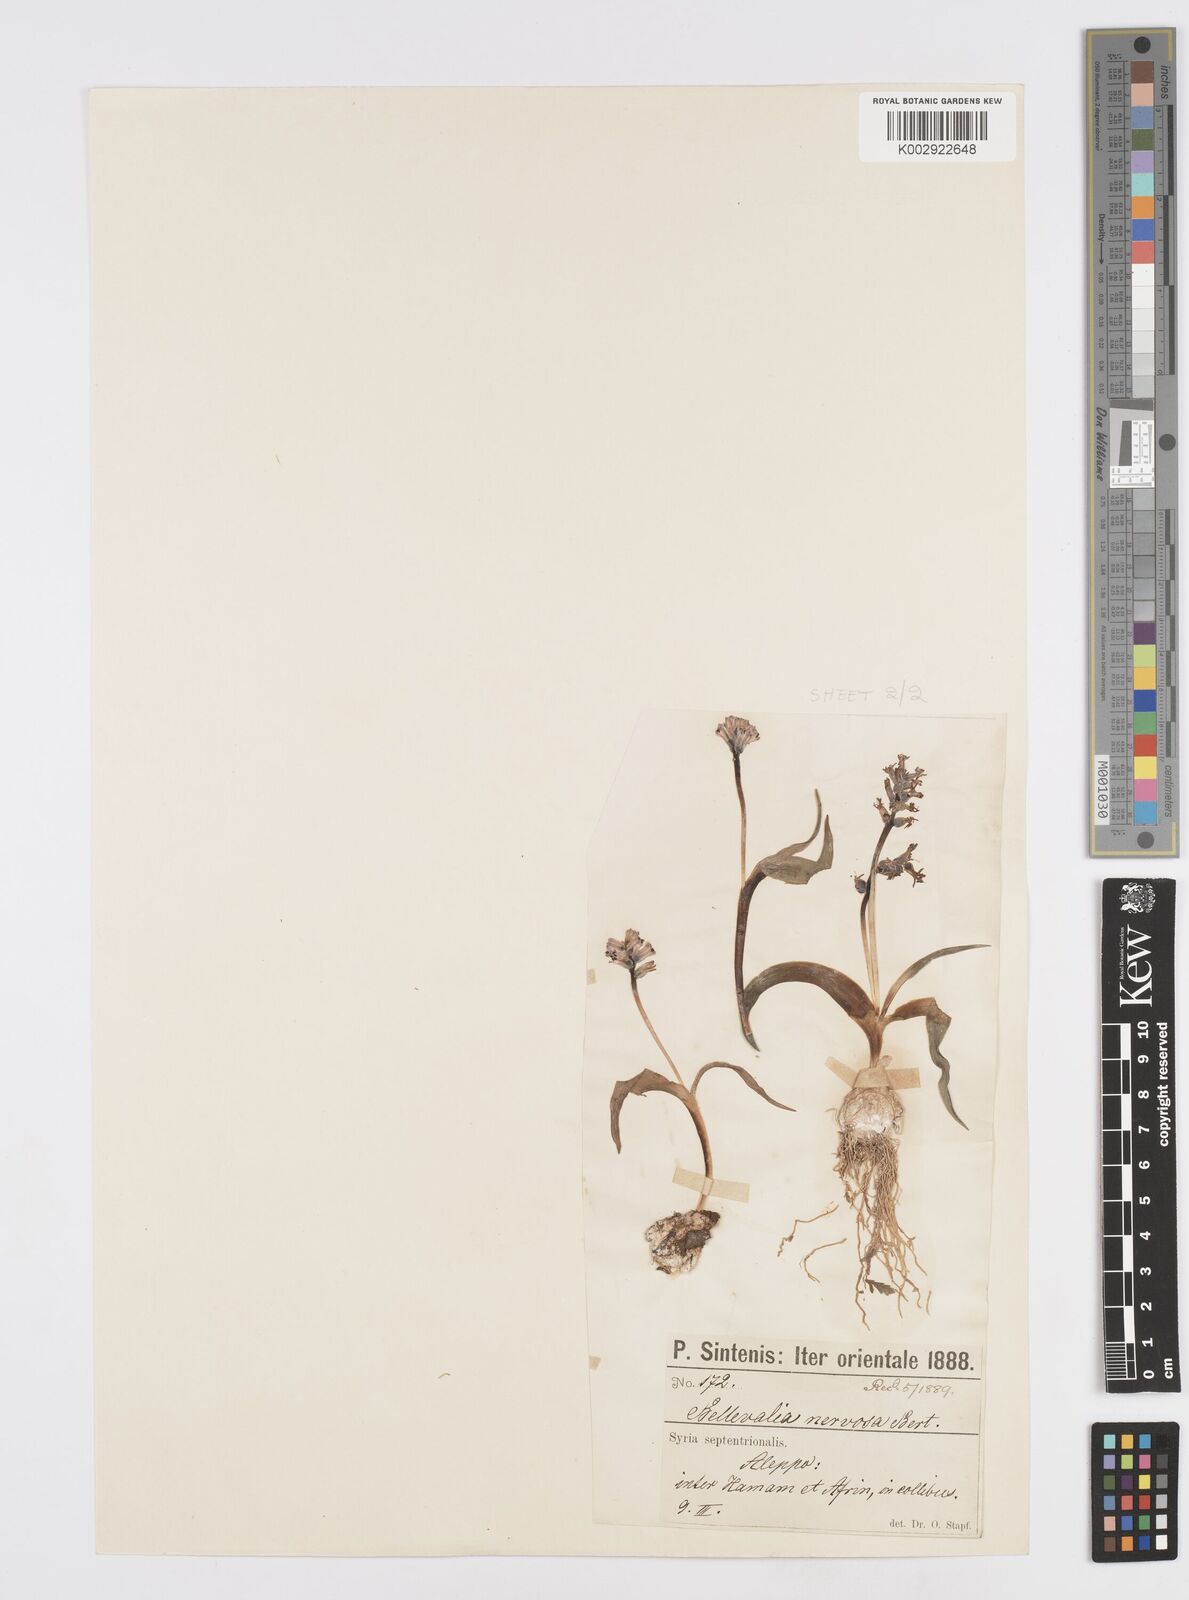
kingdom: Plantae
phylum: Tracheophyta
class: Liliopsida
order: Asparagales
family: Asparagaceae
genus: Hyacinthella
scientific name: Hyacinthella nervosa
